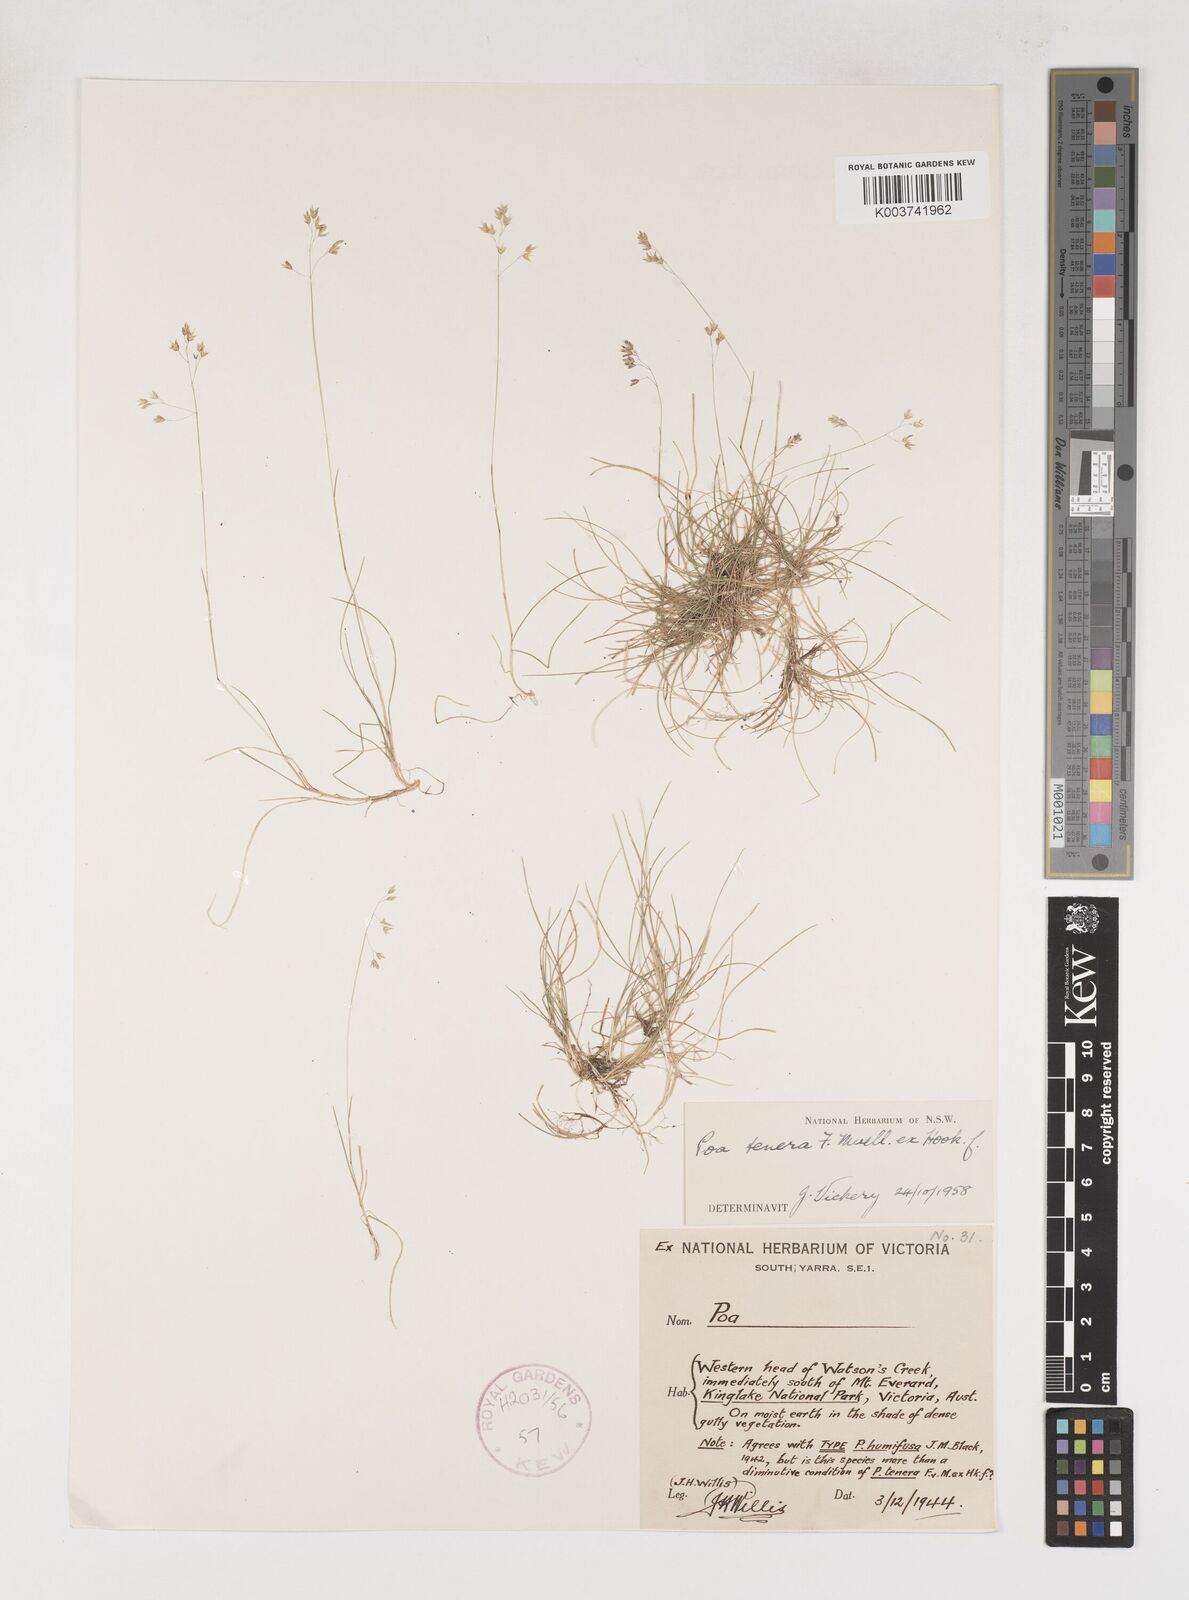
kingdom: Plantae
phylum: Tracheophyta
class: Liliopsida
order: Poales
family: Poaceae
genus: Poa
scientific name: Poa tenera
